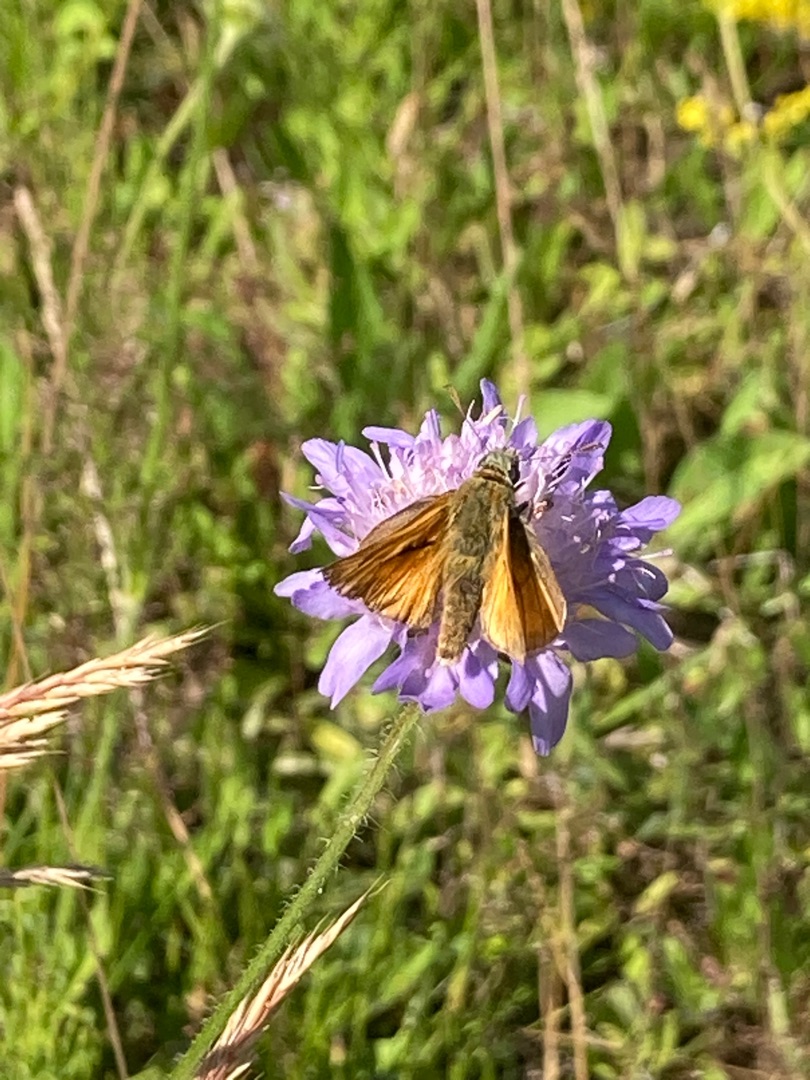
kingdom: Animalia
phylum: Arthropoda
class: Insecta
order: Lepidoptera
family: Hesperiidae
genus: Ochlodes
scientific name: Ochlodes venata
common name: Stor bredpande
